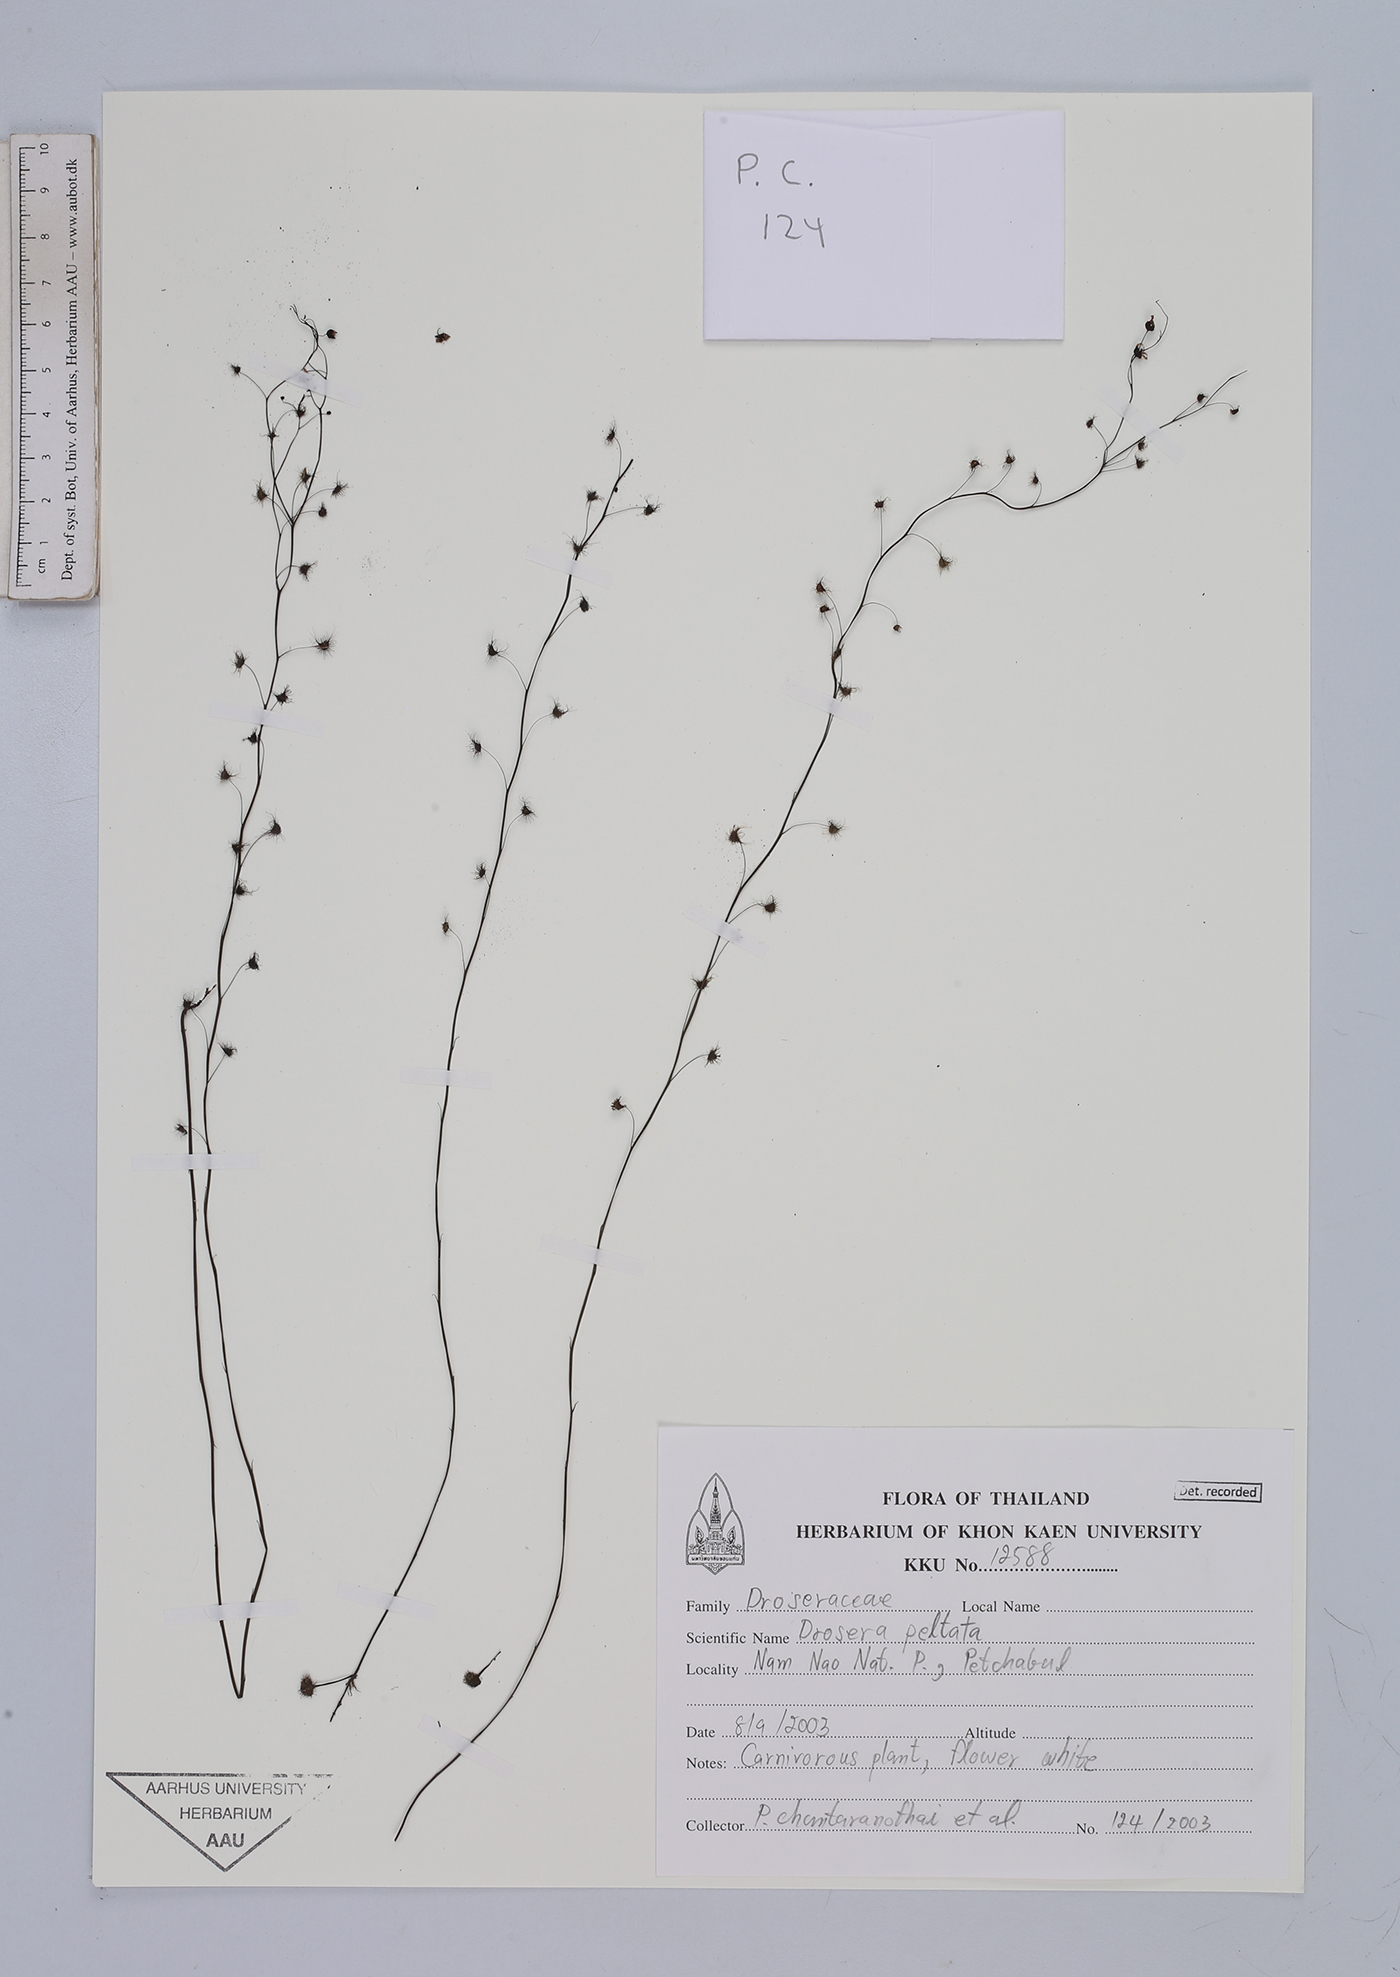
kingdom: Plantae
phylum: Tracheophyta
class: Magnoliopsida
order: Caryophyllales
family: Droseraceae
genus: Drosera
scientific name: Drosera peltata
